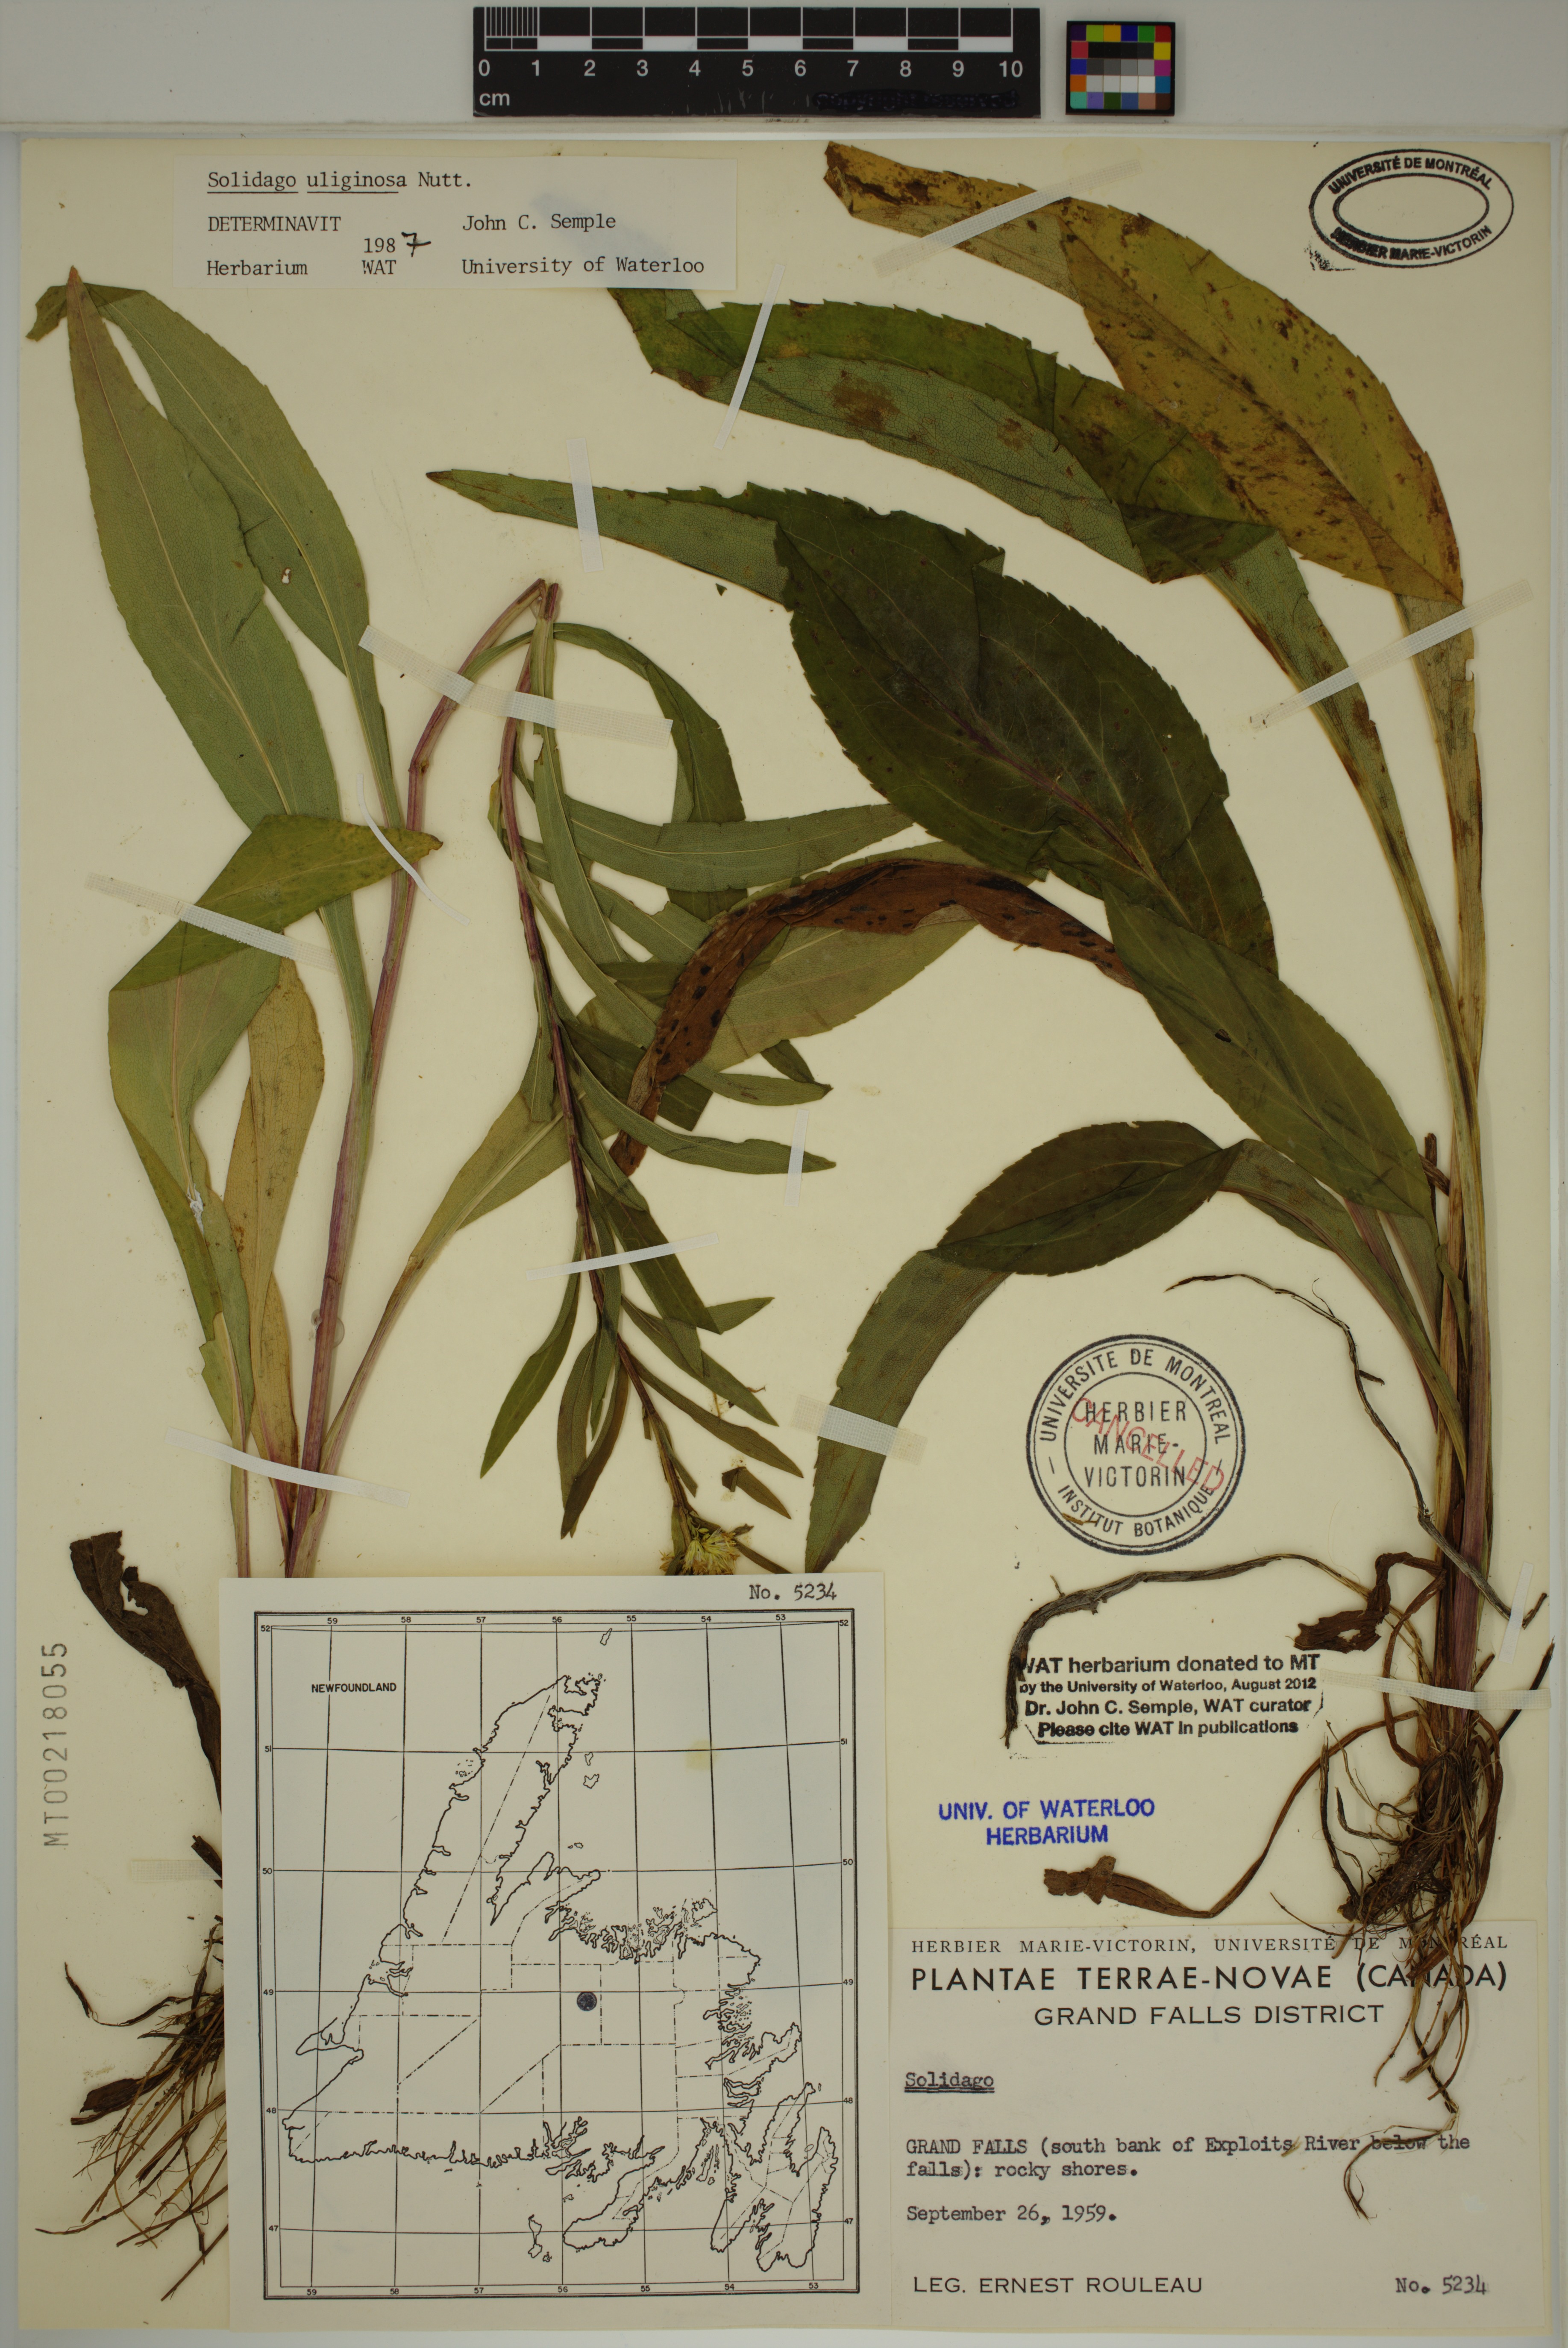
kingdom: Plantae
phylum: Tracheophyta
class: Magnoliopsida
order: Asterales
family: Asteraceae
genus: Solidago
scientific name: Solidago uliginosa
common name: Bog goldenrod
